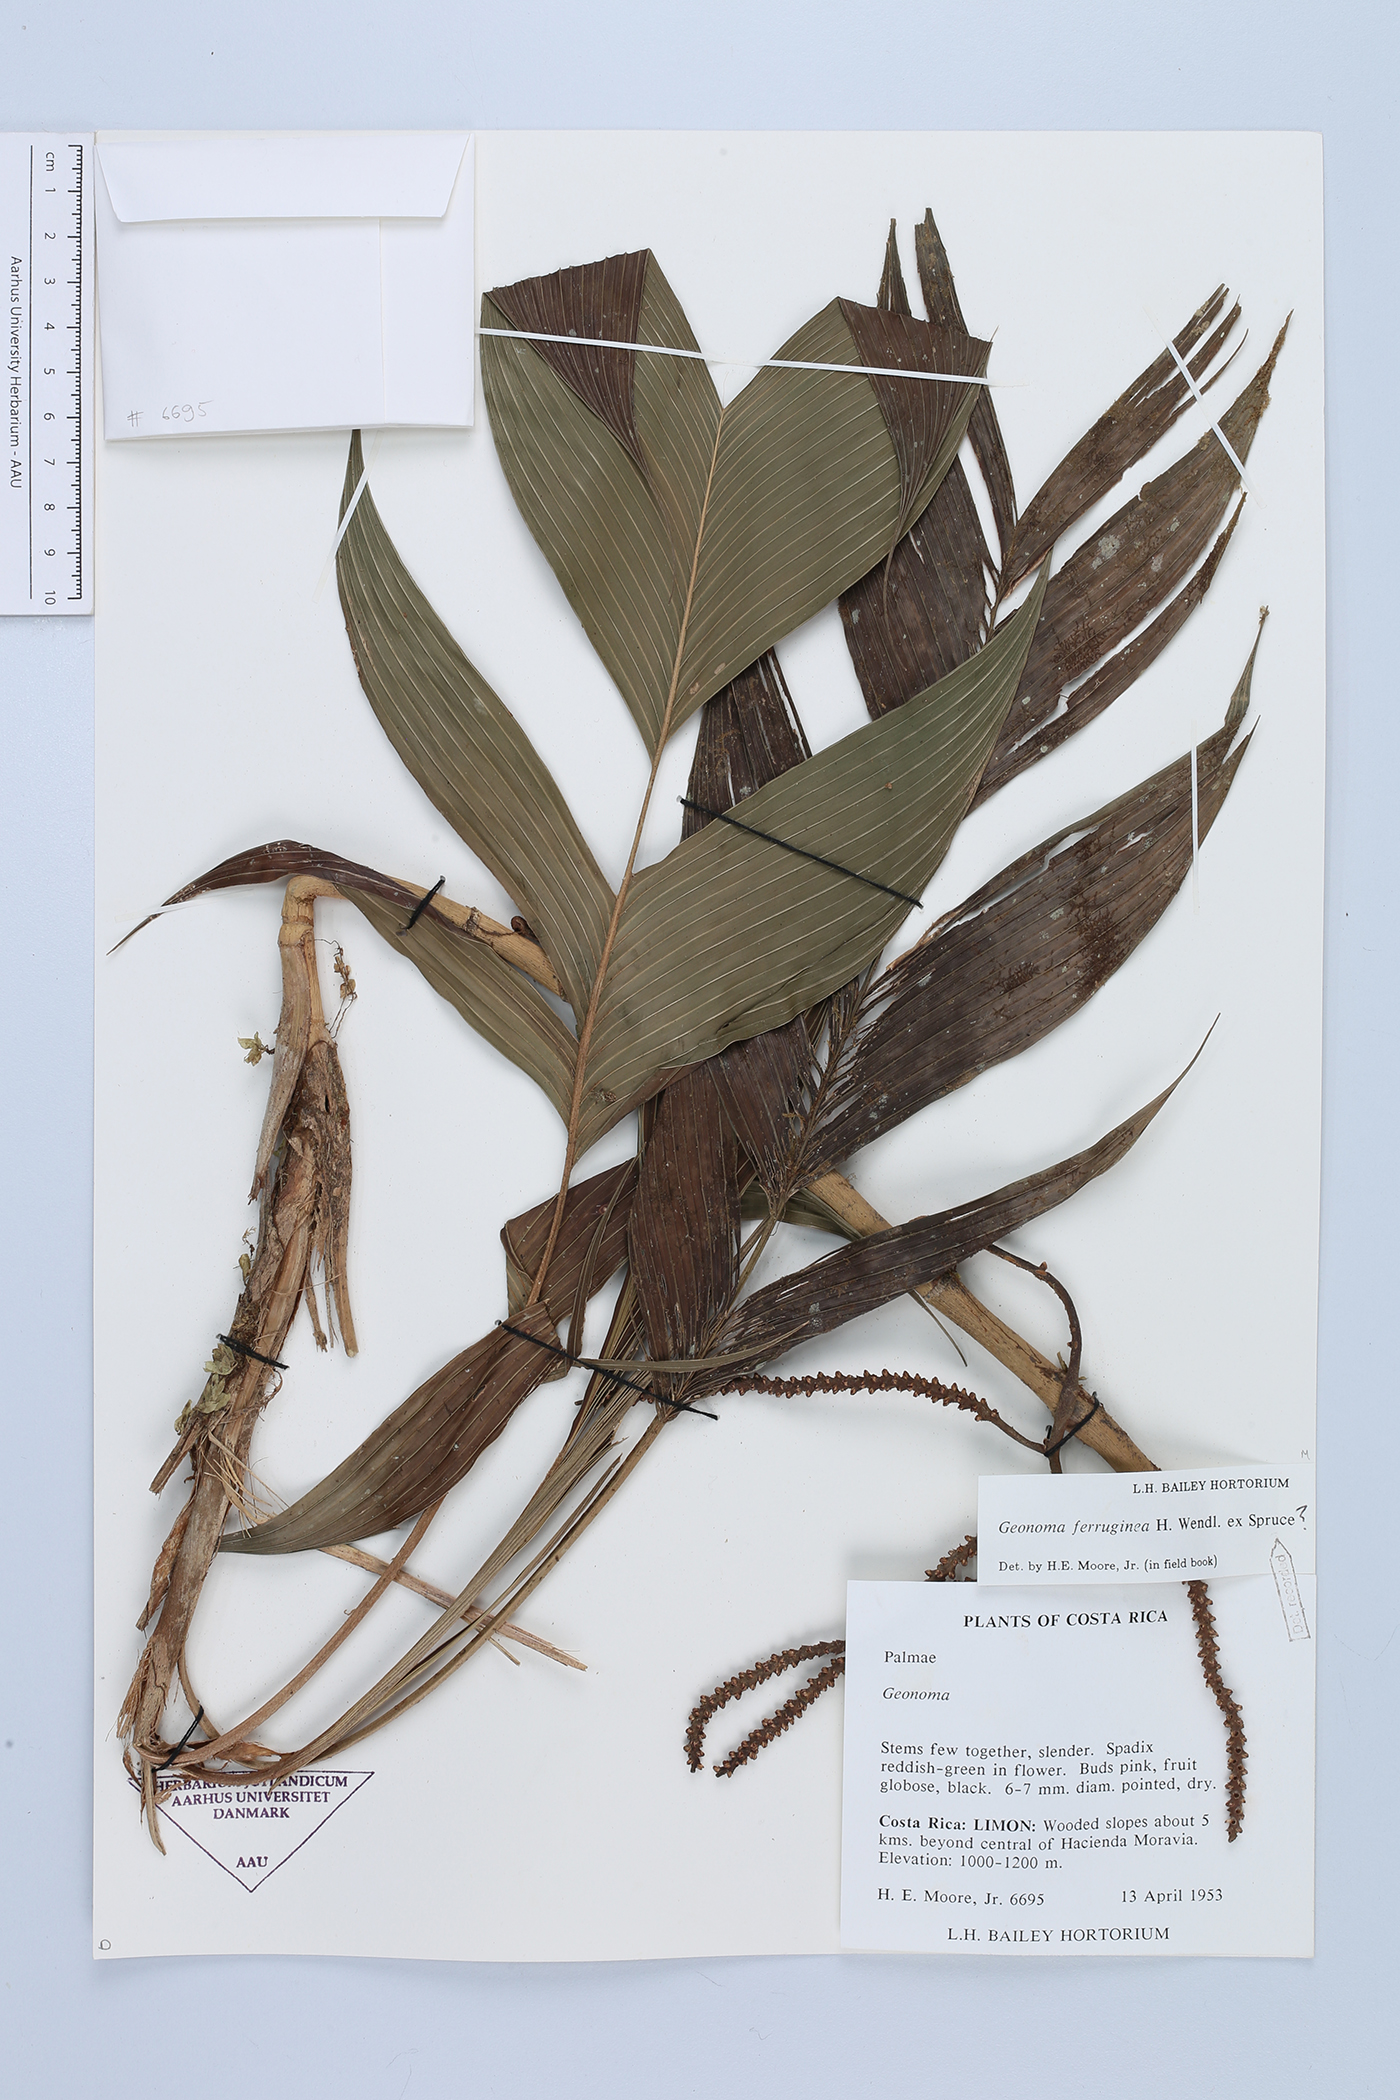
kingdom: Plantae
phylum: Tracheophyta
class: Liliopsida
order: Arecales
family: Arecaceae
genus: Geonoma
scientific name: Geonoma ferruginea
